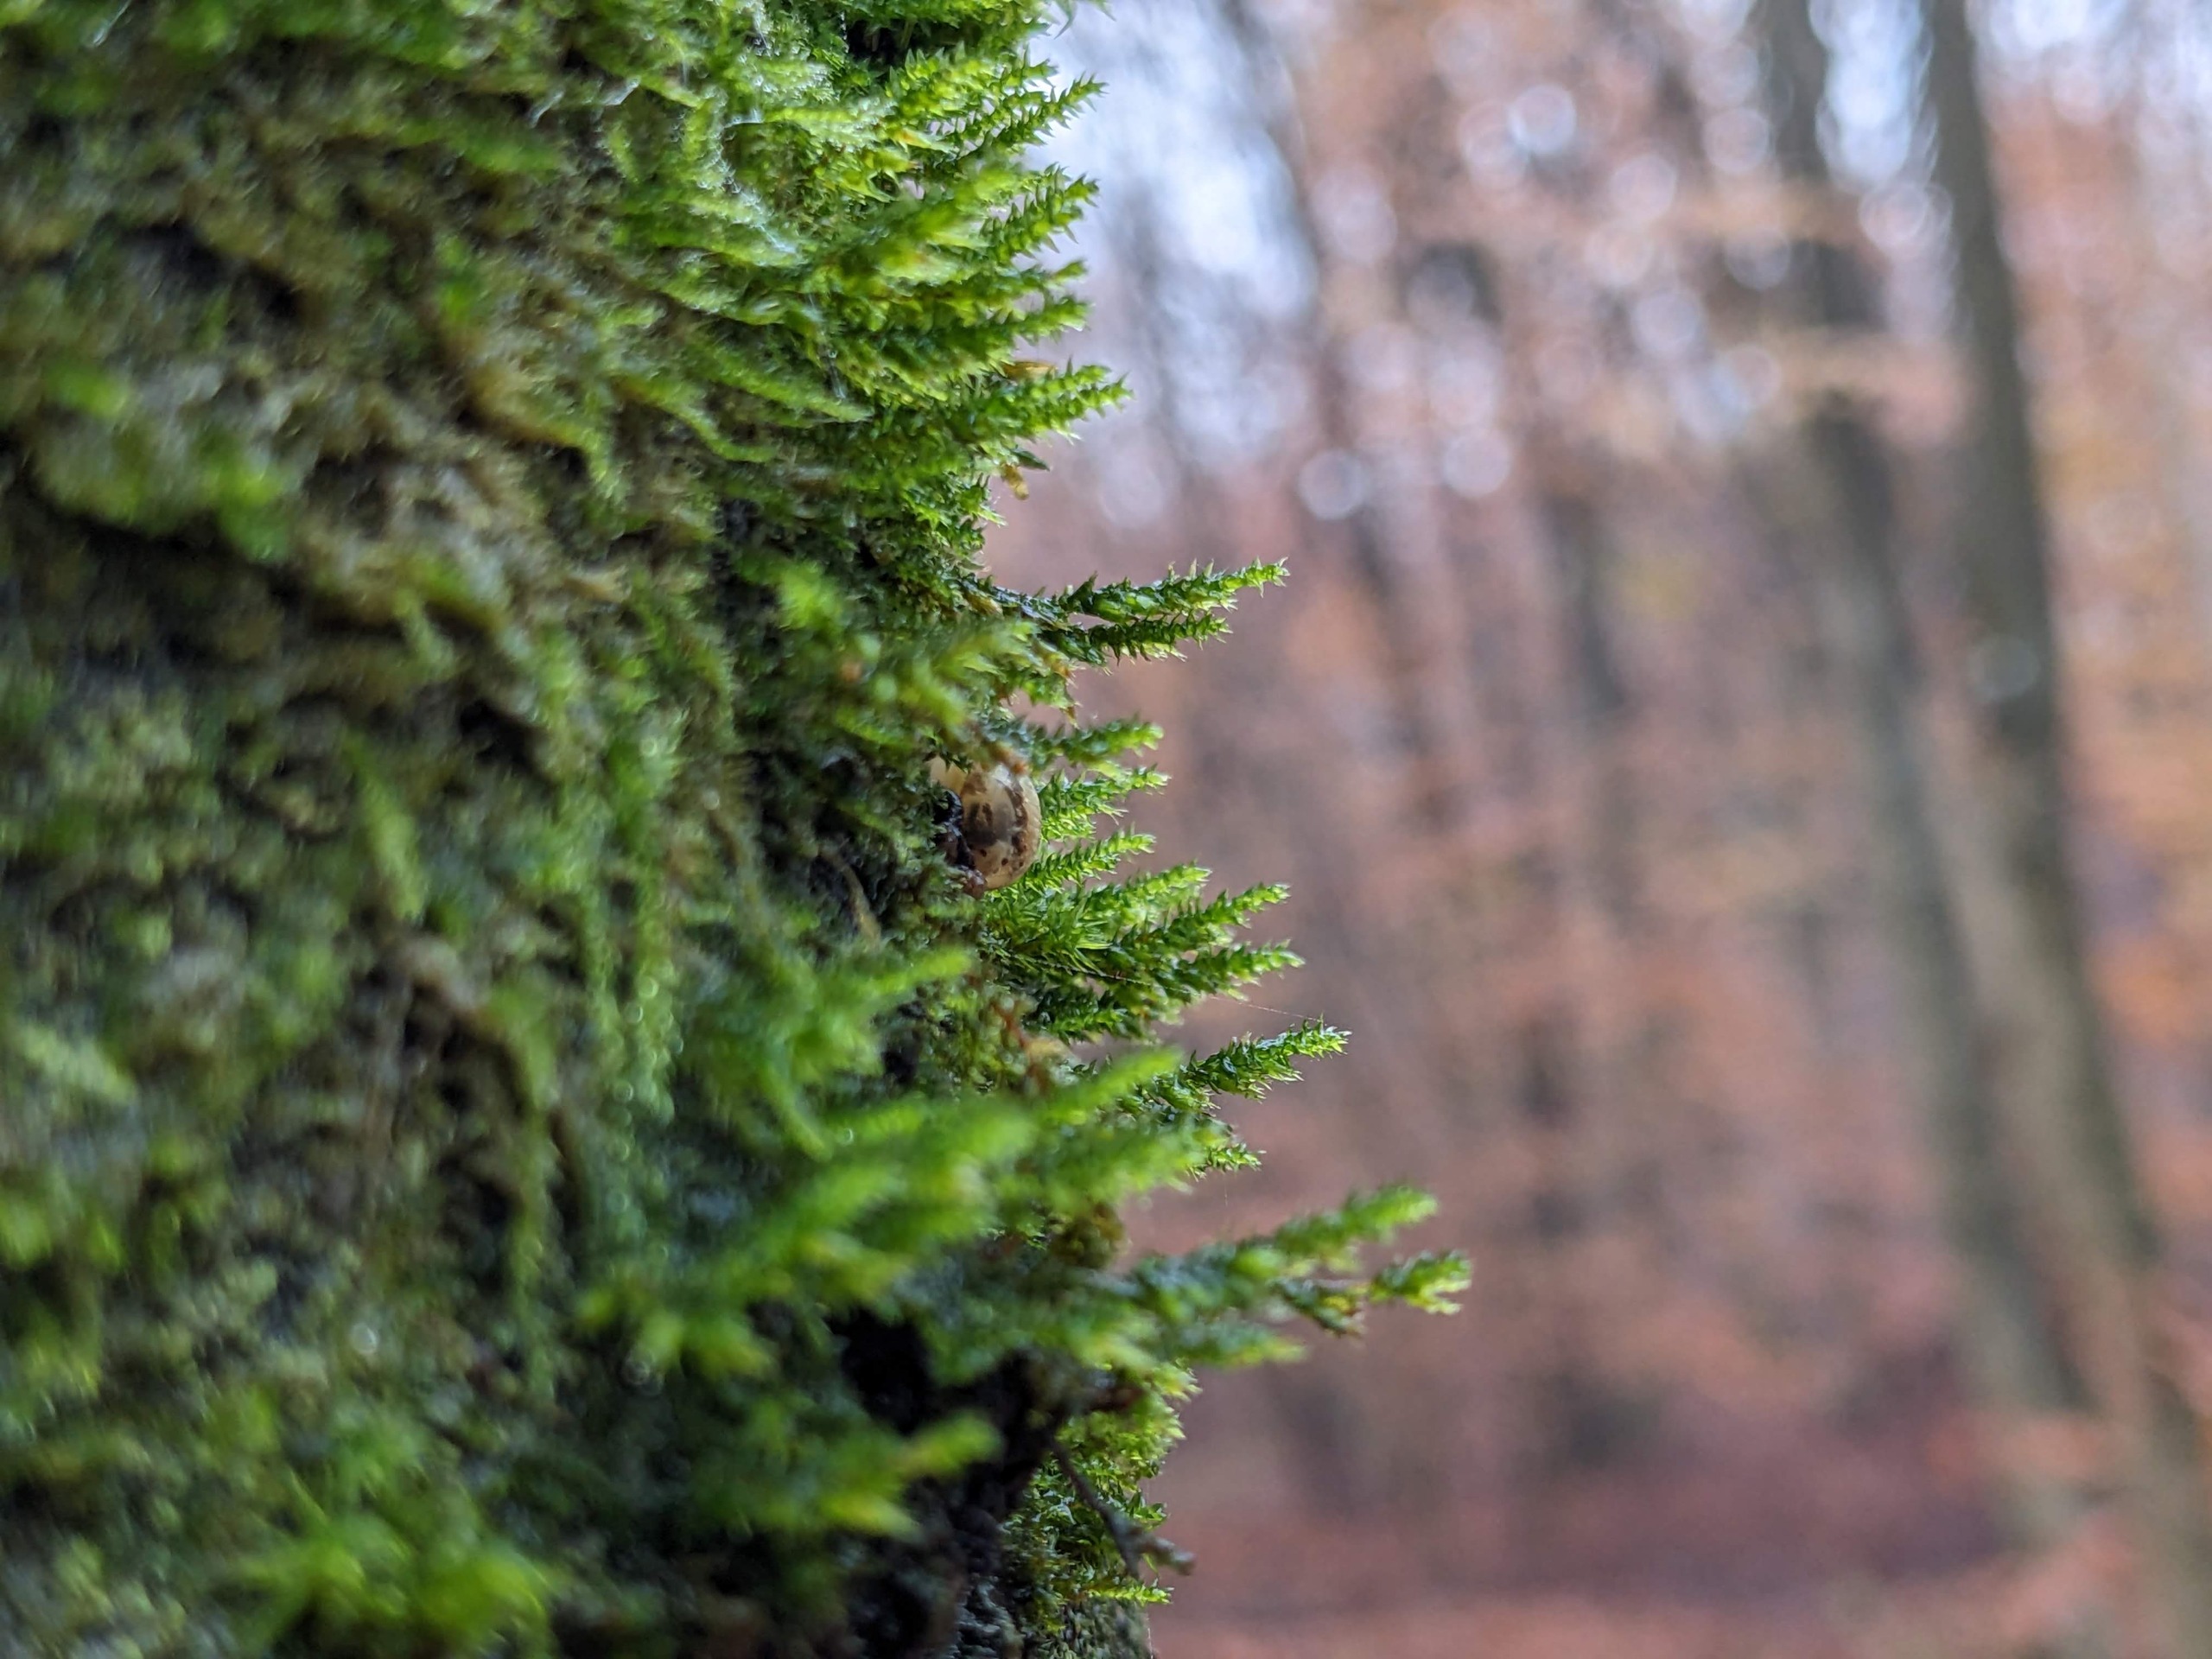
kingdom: Plantae
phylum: Bryophyta
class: Bryopsida
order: Hypnales
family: Cryphaeaceae
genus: Cryphaea
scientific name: Cryphaea heteromalla
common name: Bark-dækmos
